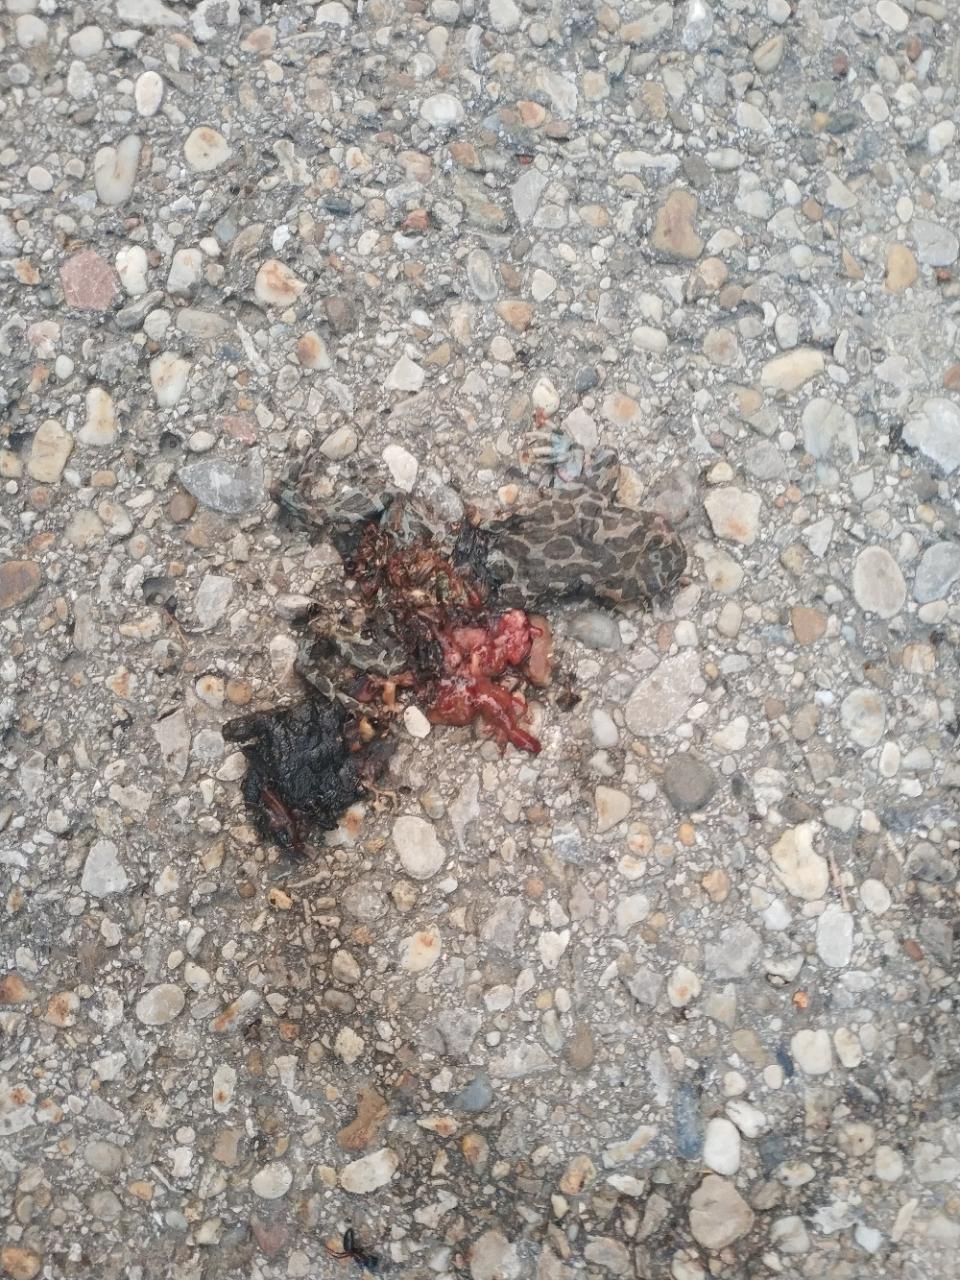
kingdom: Animalia
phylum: Chordata
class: Amphibia
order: Anura
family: Bufonidae
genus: Bufotes
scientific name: Bufotes viridis
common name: European green toad
